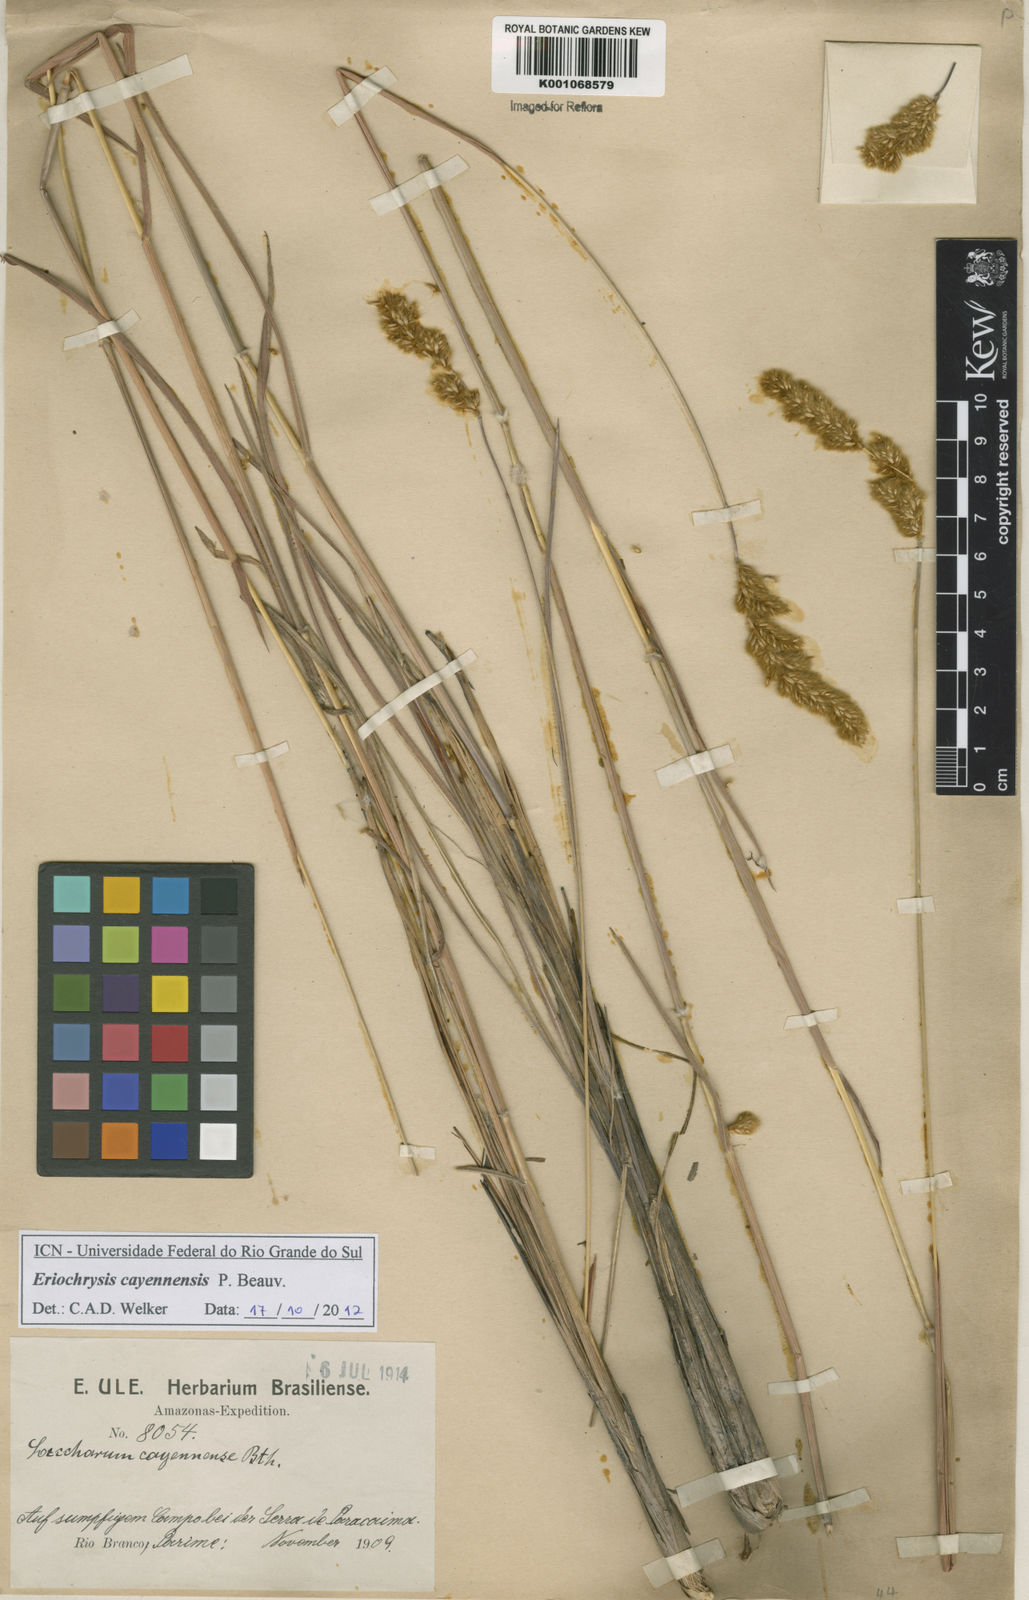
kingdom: Plantae
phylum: Tracheophyta
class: Liliopsida
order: Poales
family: Poaceae
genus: Eriochrysis
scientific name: Eriochrysis cayennensis
